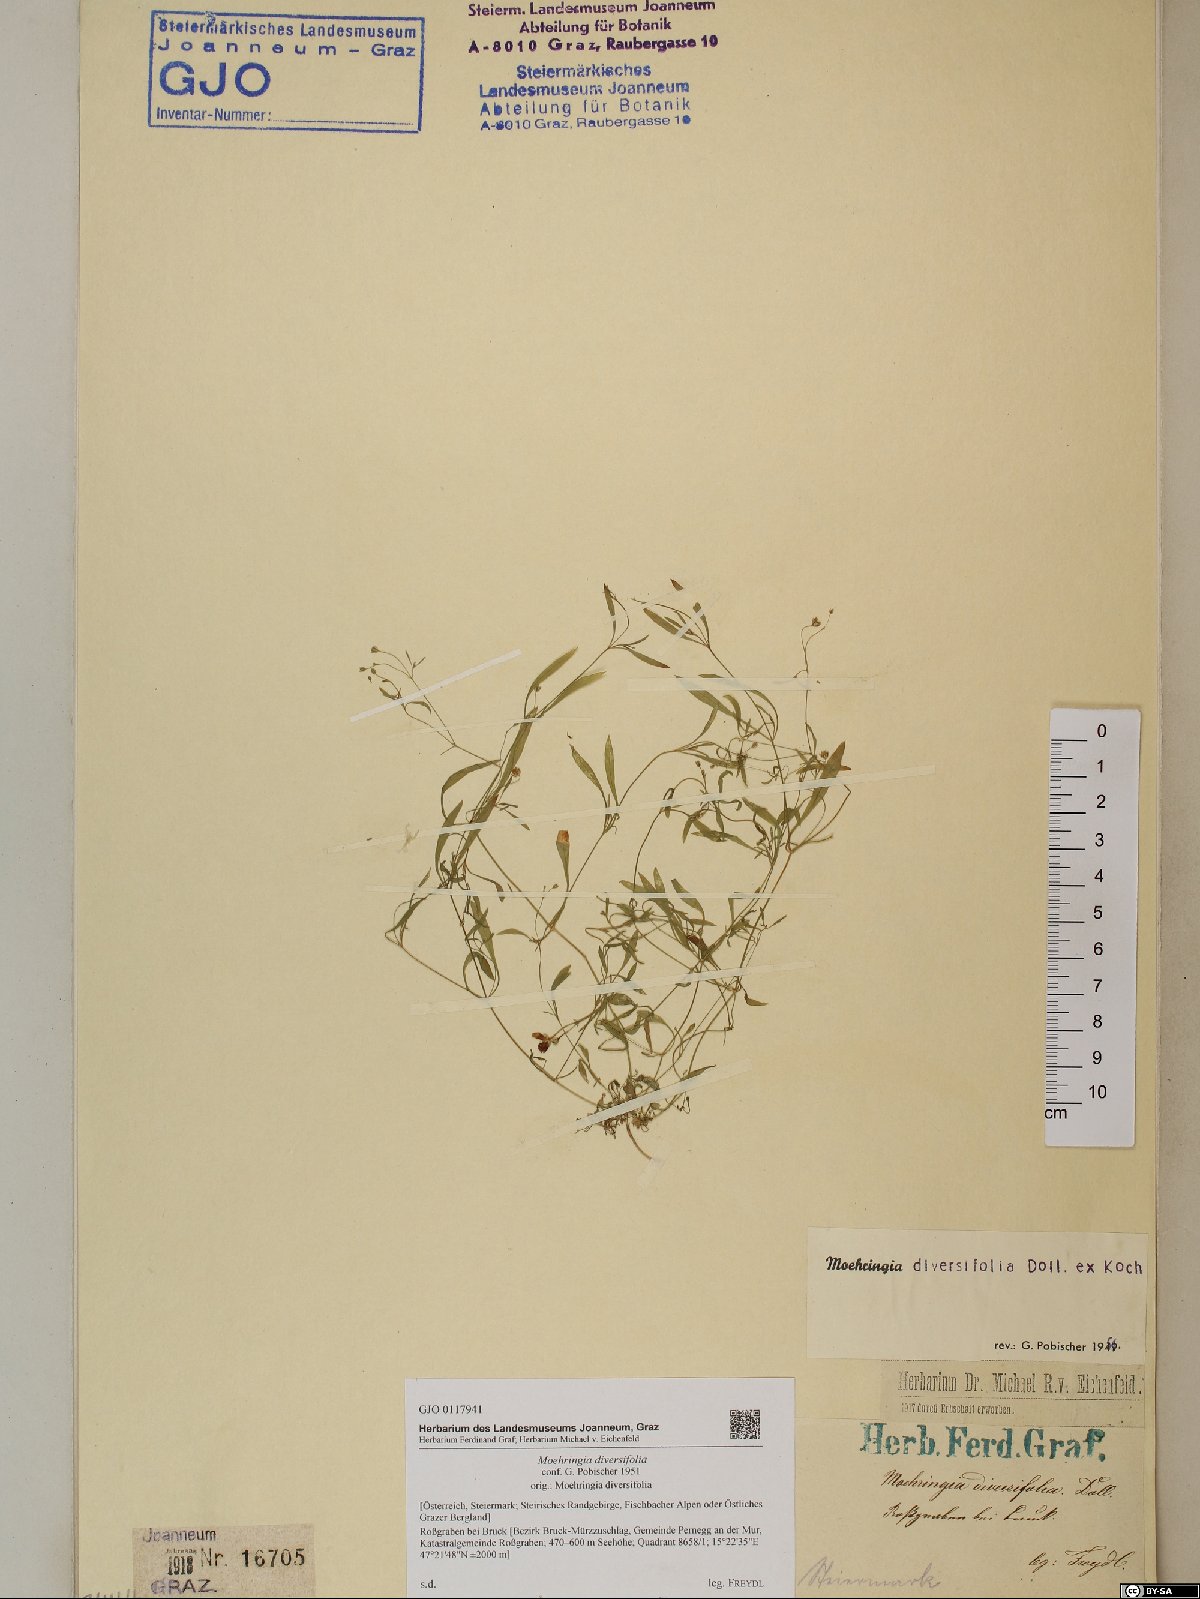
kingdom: Plantae
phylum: Tracheophyta
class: Magnoliopsida
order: Caryophyllales
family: Caryophyllaceae
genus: Moehringia
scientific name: Moehringia diversifolia
